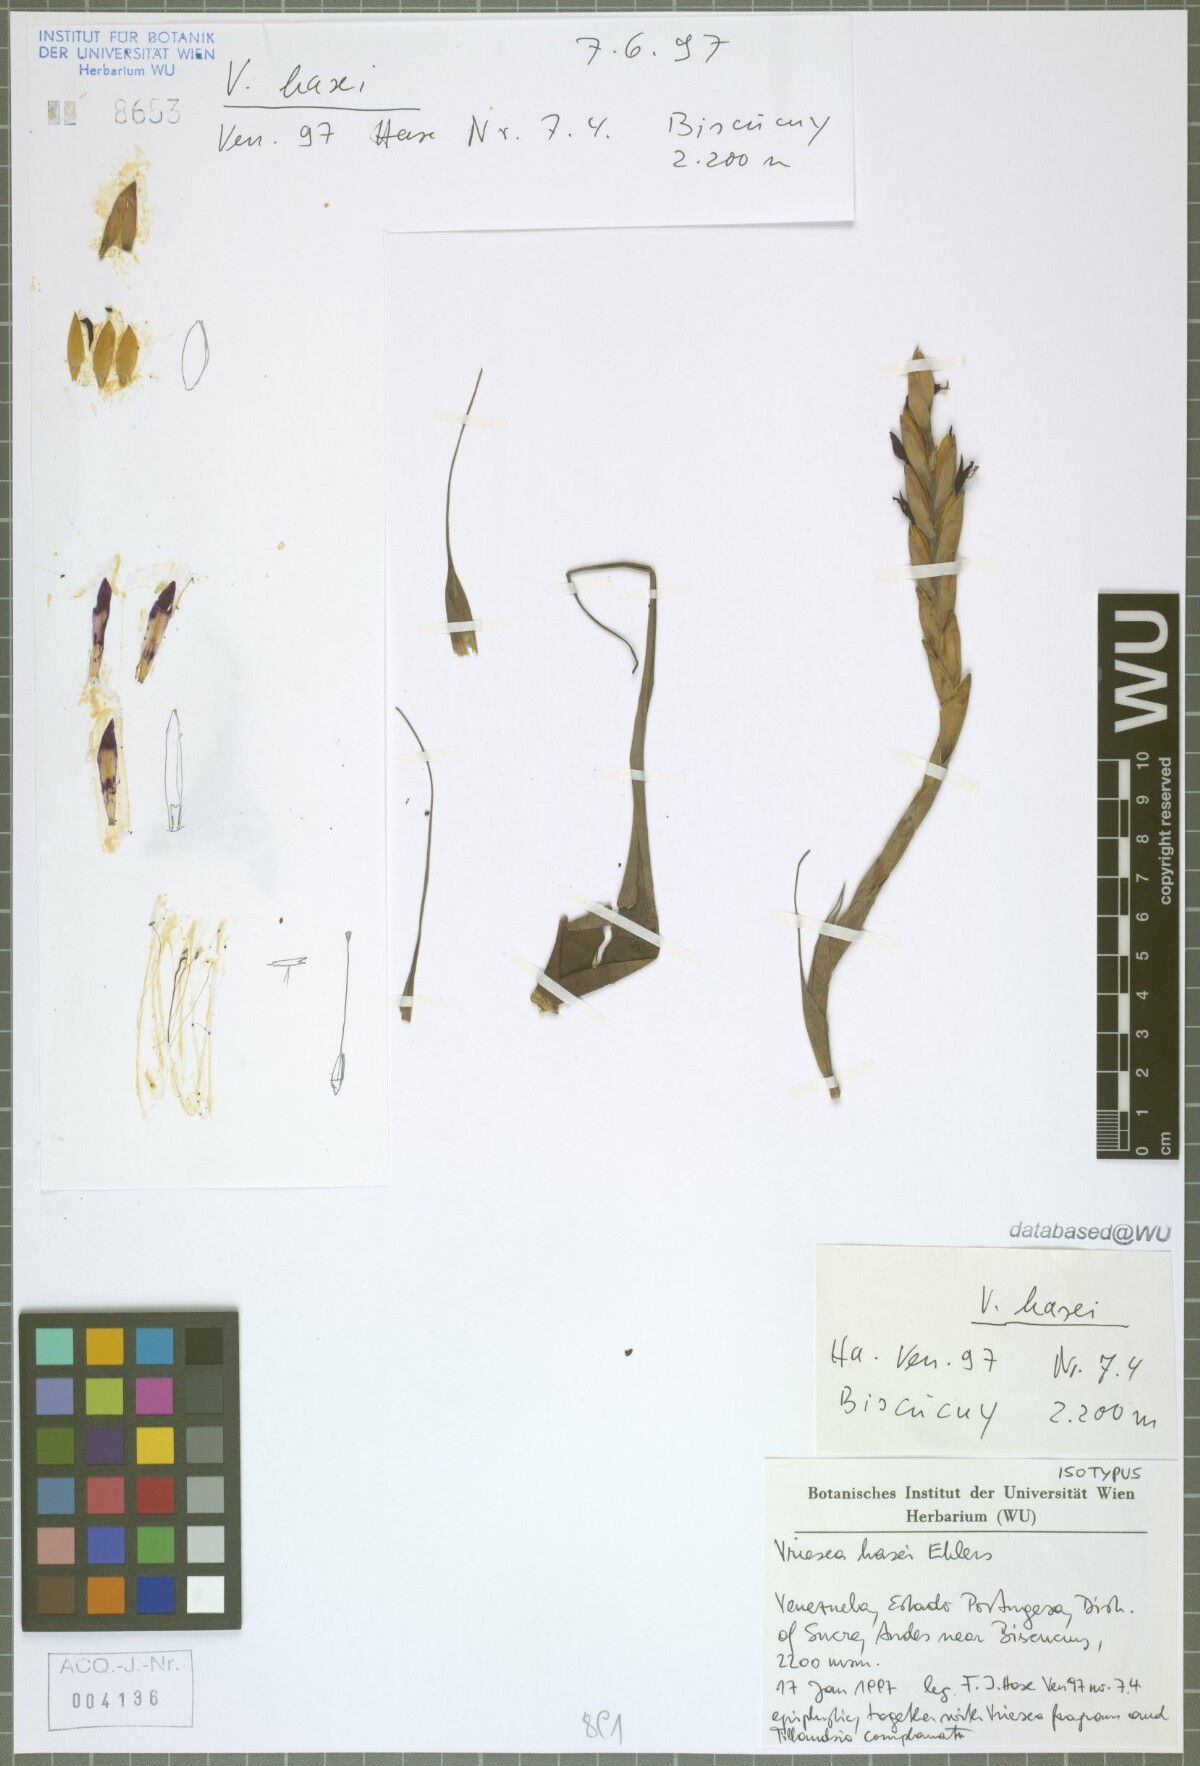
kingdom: Plantae
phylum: Tracheophyta
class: Liliopsida
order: Poales
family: Bromeliaceae
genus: Tillandsia
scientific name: Tillandsia frank-hasei
